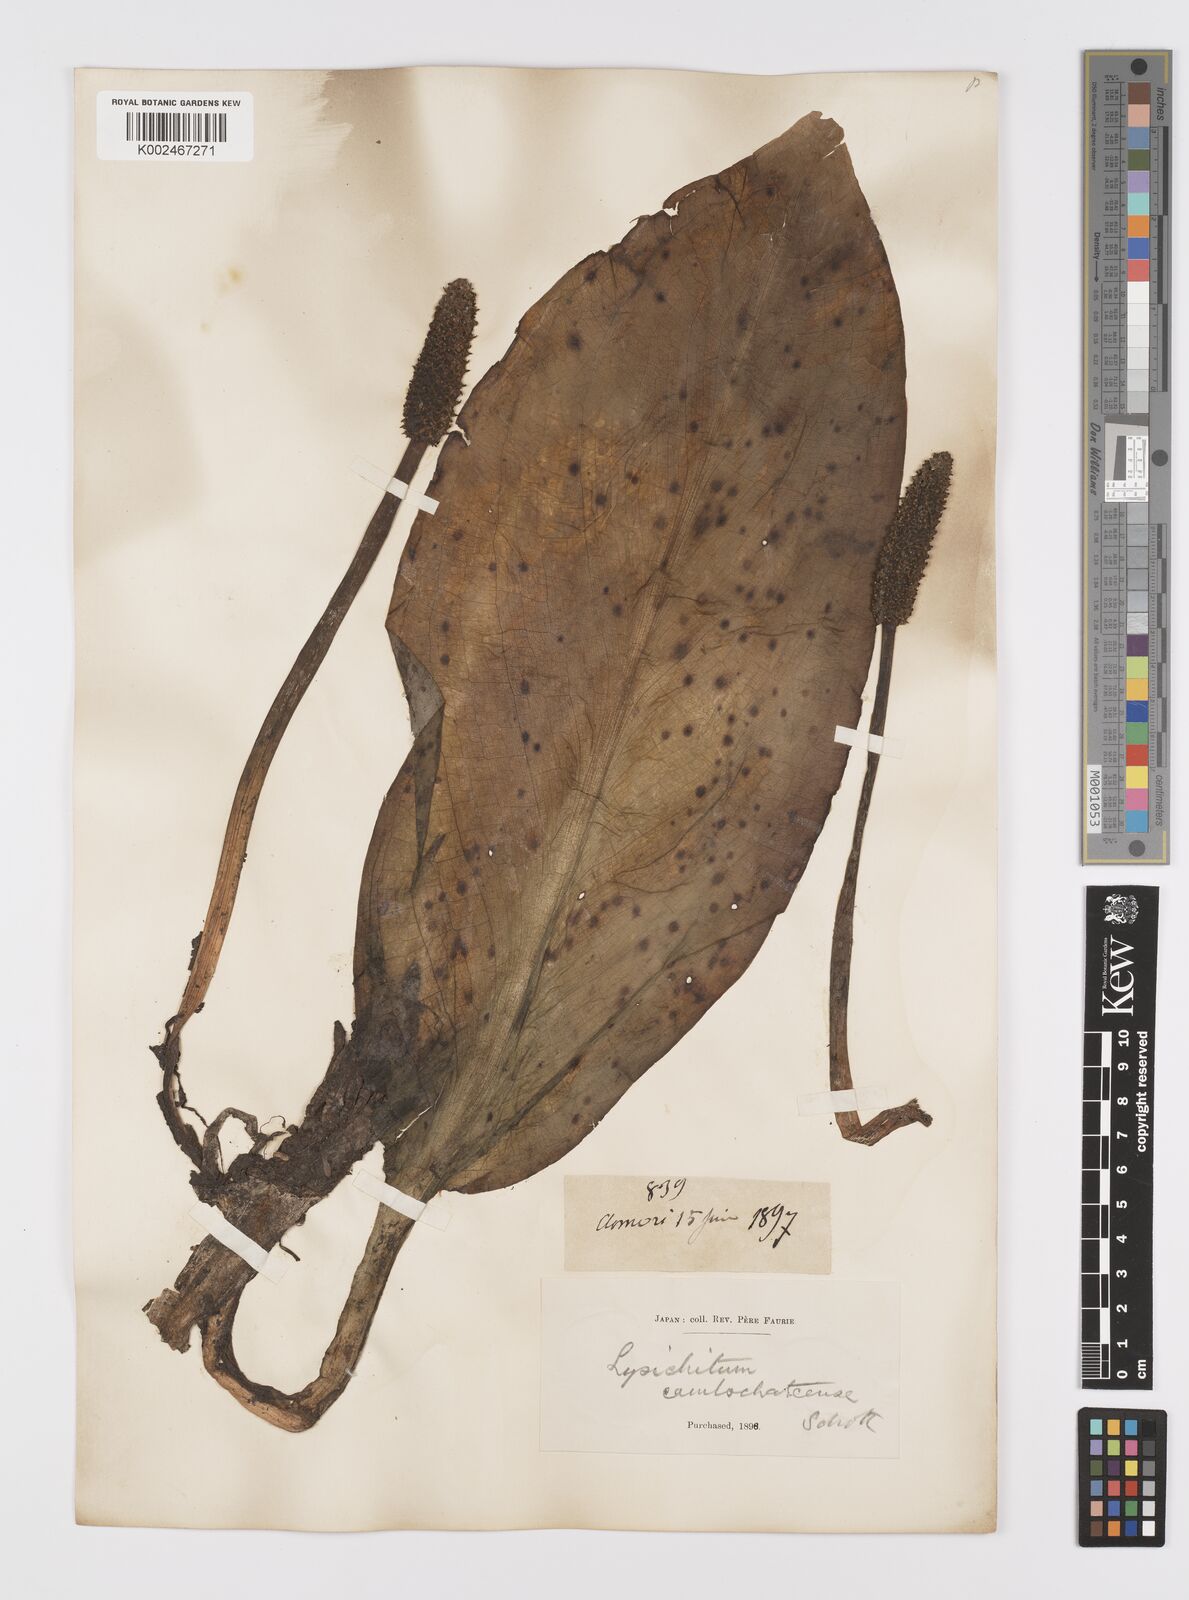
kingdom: Plantae
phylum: Tracheophyta
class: Liliopsida
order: Alismatales
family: Araceae
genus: Lysichiton
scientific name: Lysichiton camtschatcensis
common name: Asian skunk-cabbage
